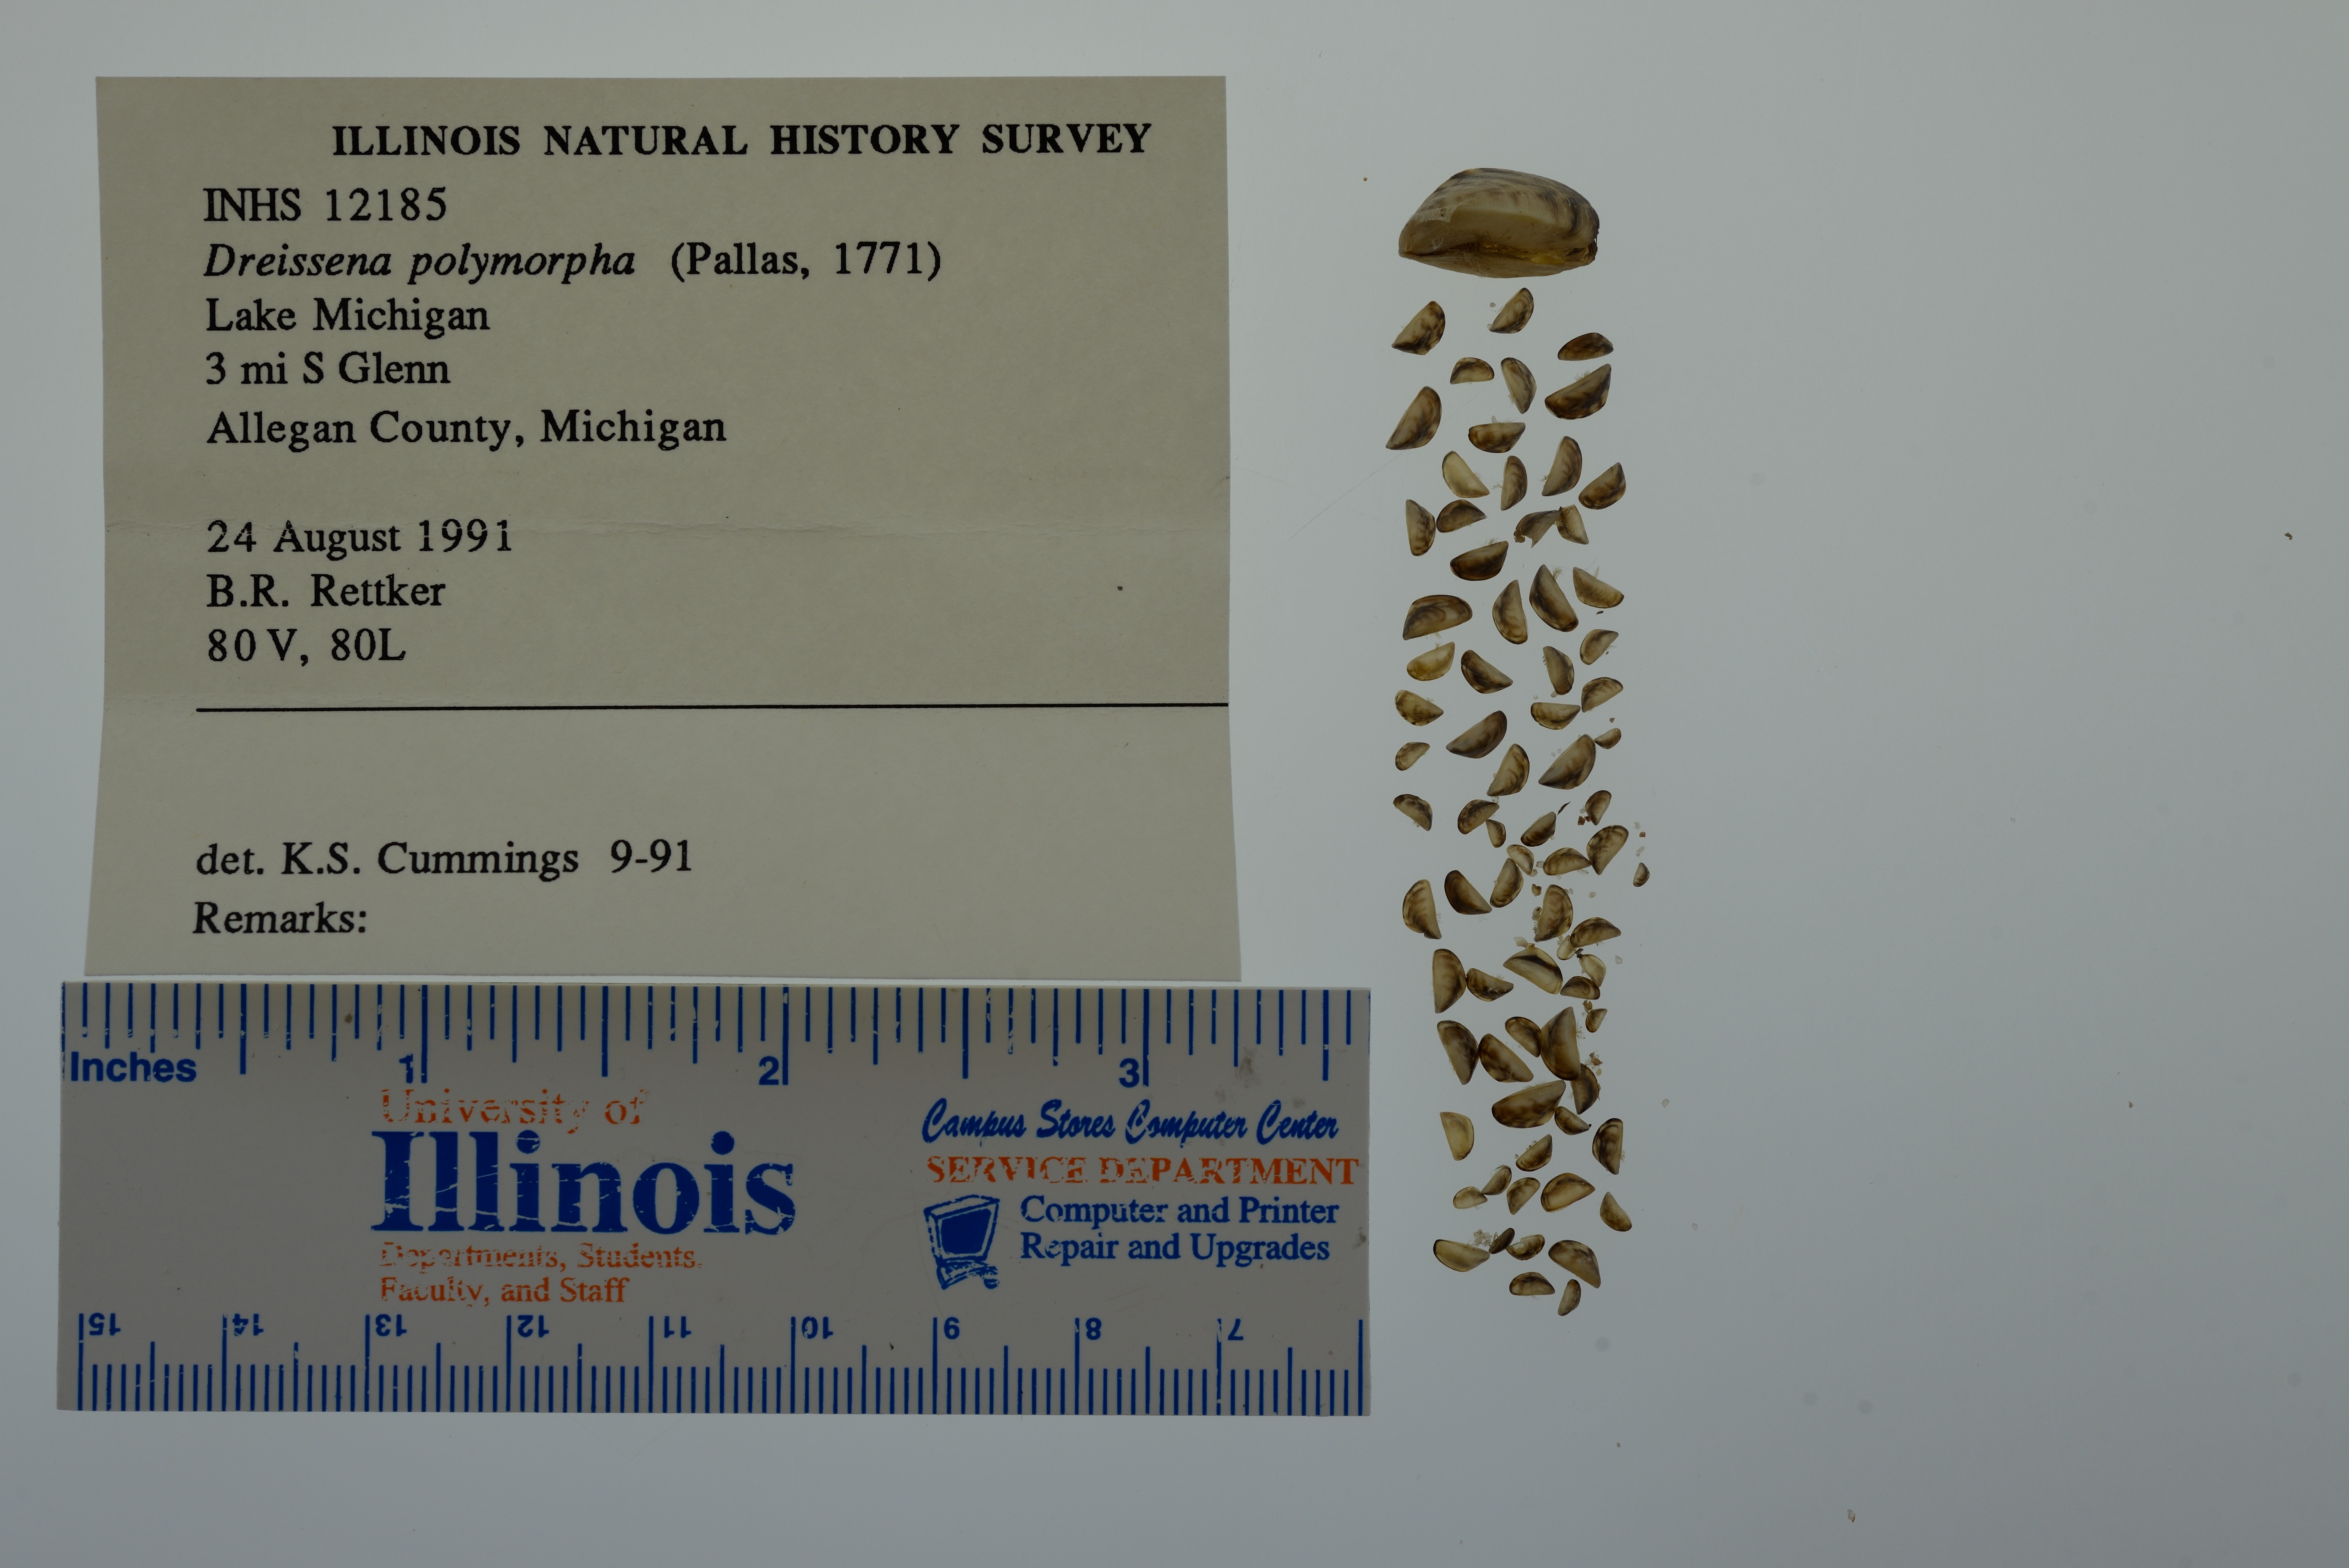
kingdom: Animalia
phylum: Mollusca
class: Bivalvia
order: Myida
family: Dreissenidae
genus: Dreissena
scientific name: Dreissena polymorpha
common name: Zebra mussel
